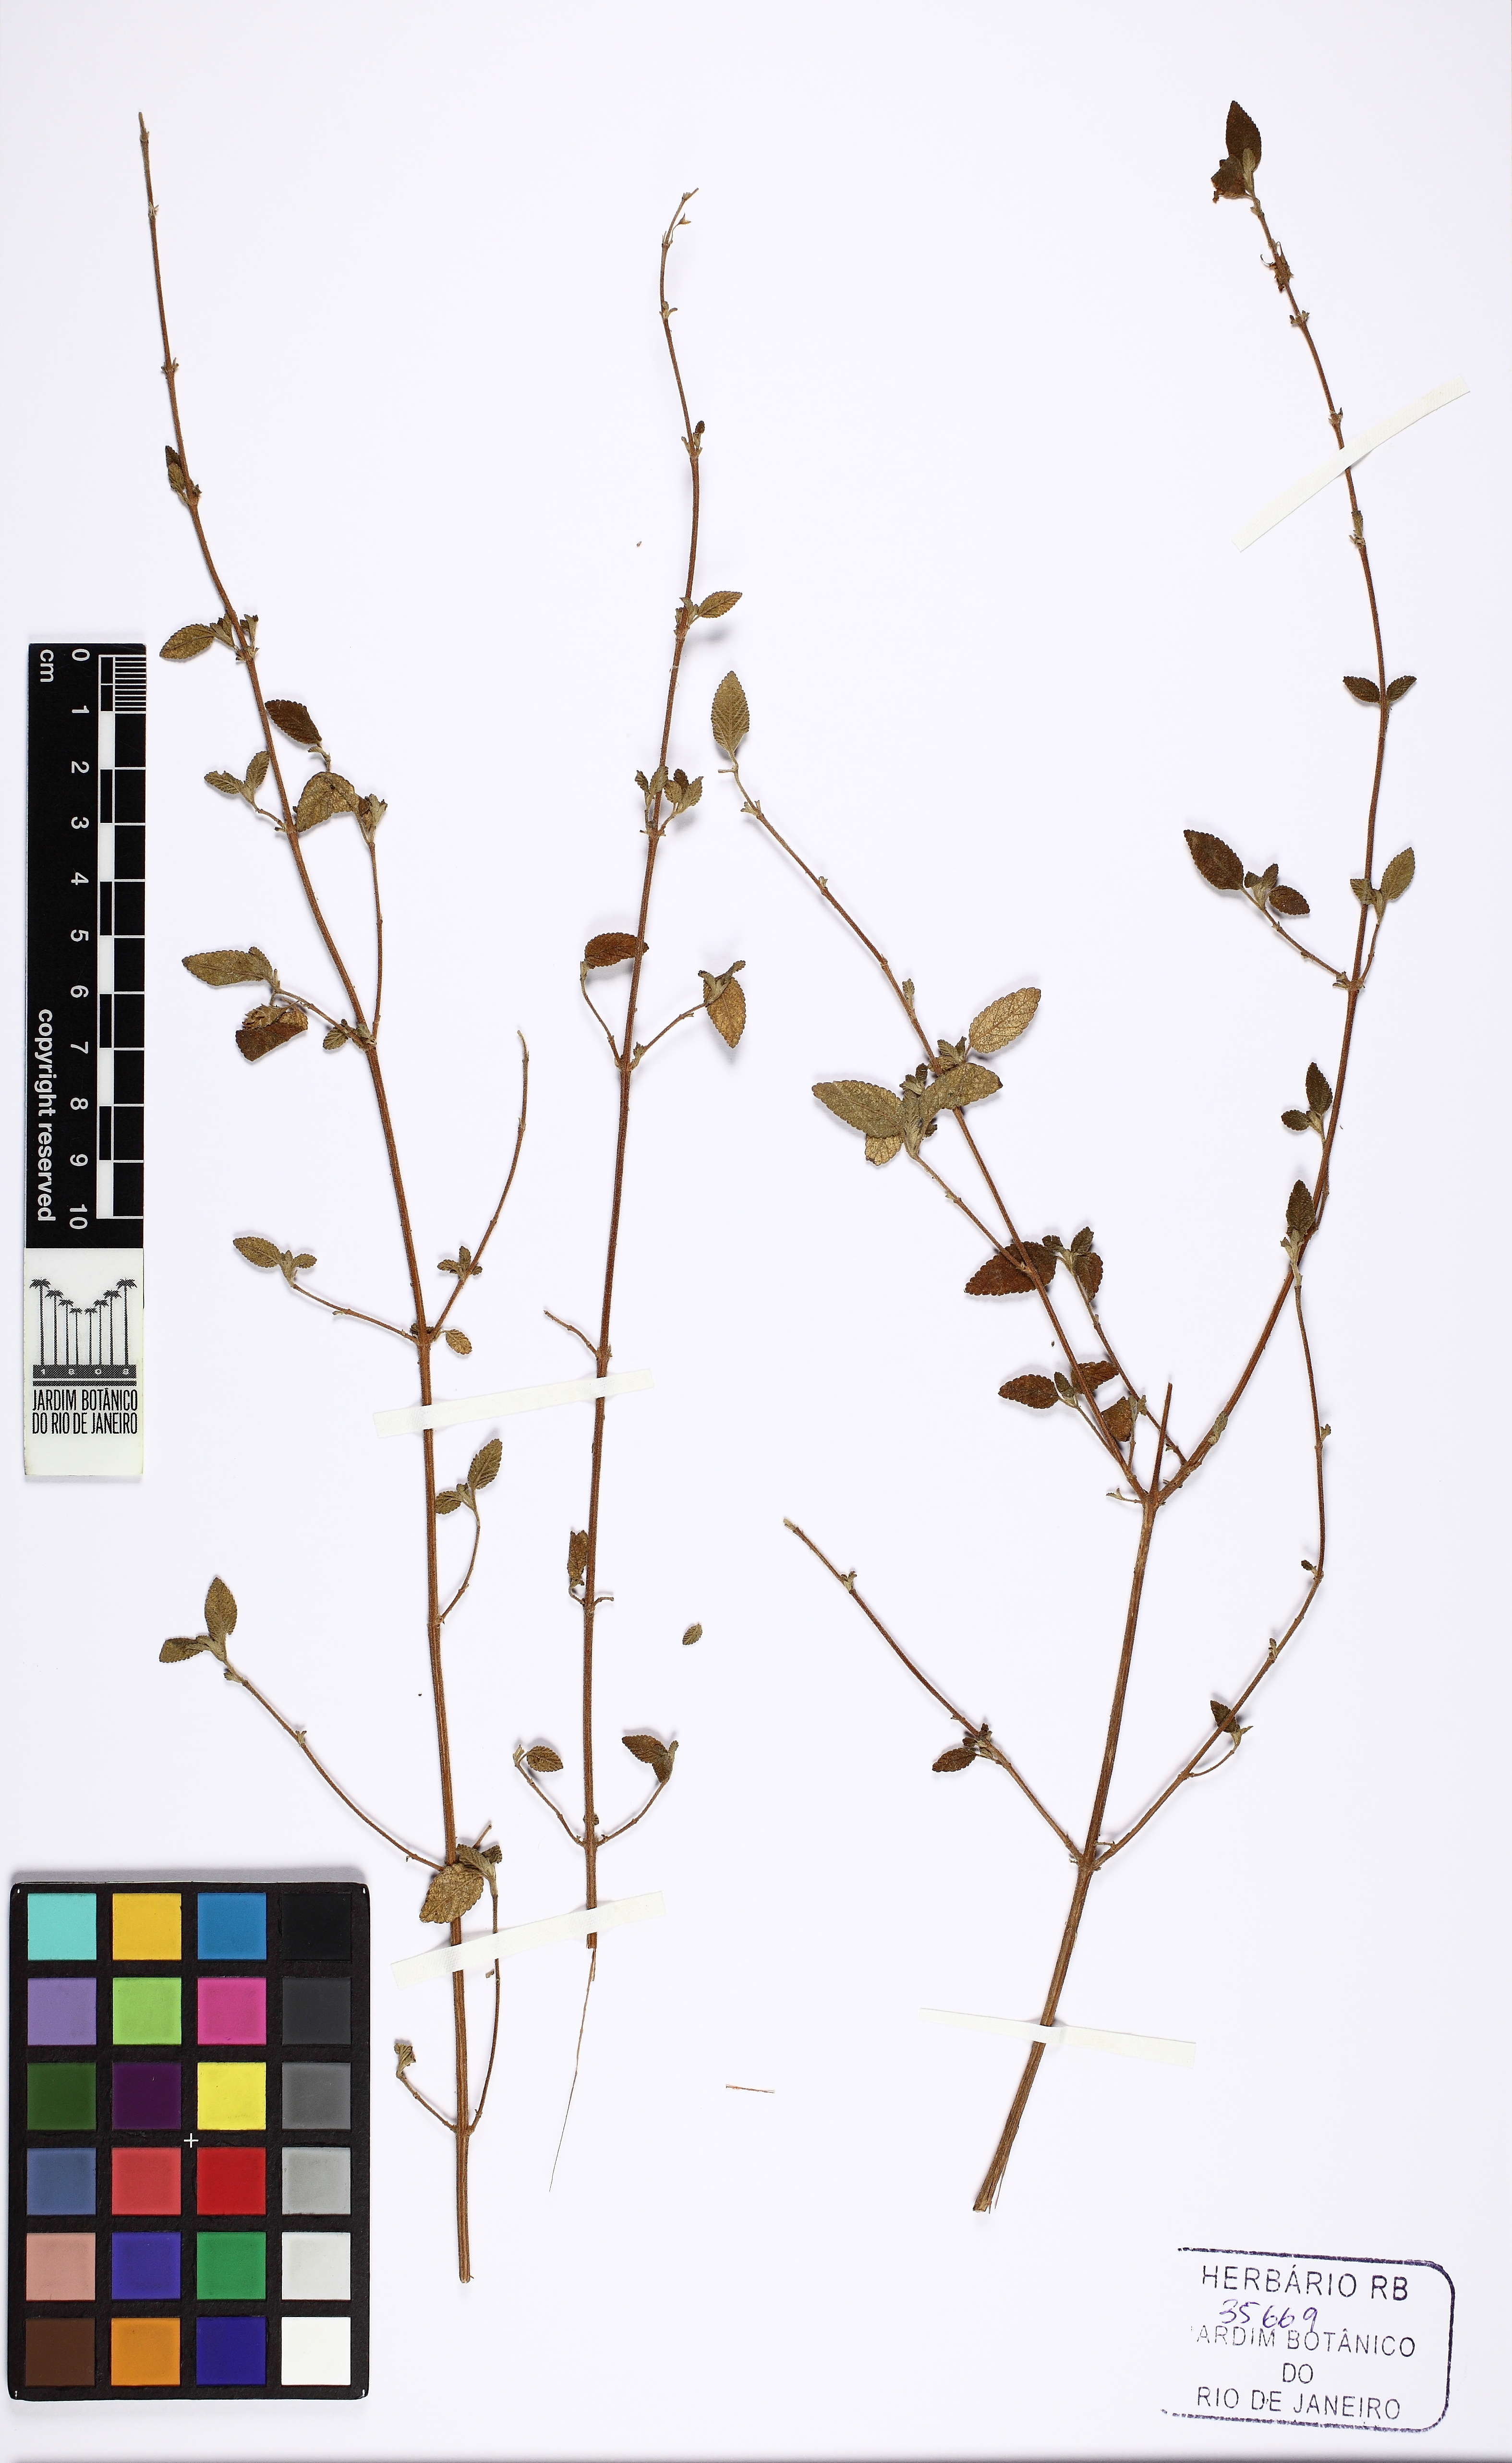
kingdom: Plantae
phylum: Tracheophyta
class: Magnoliopsida
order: Lamiales
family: Verbenaceae
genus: Lippia
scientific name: Lippia
